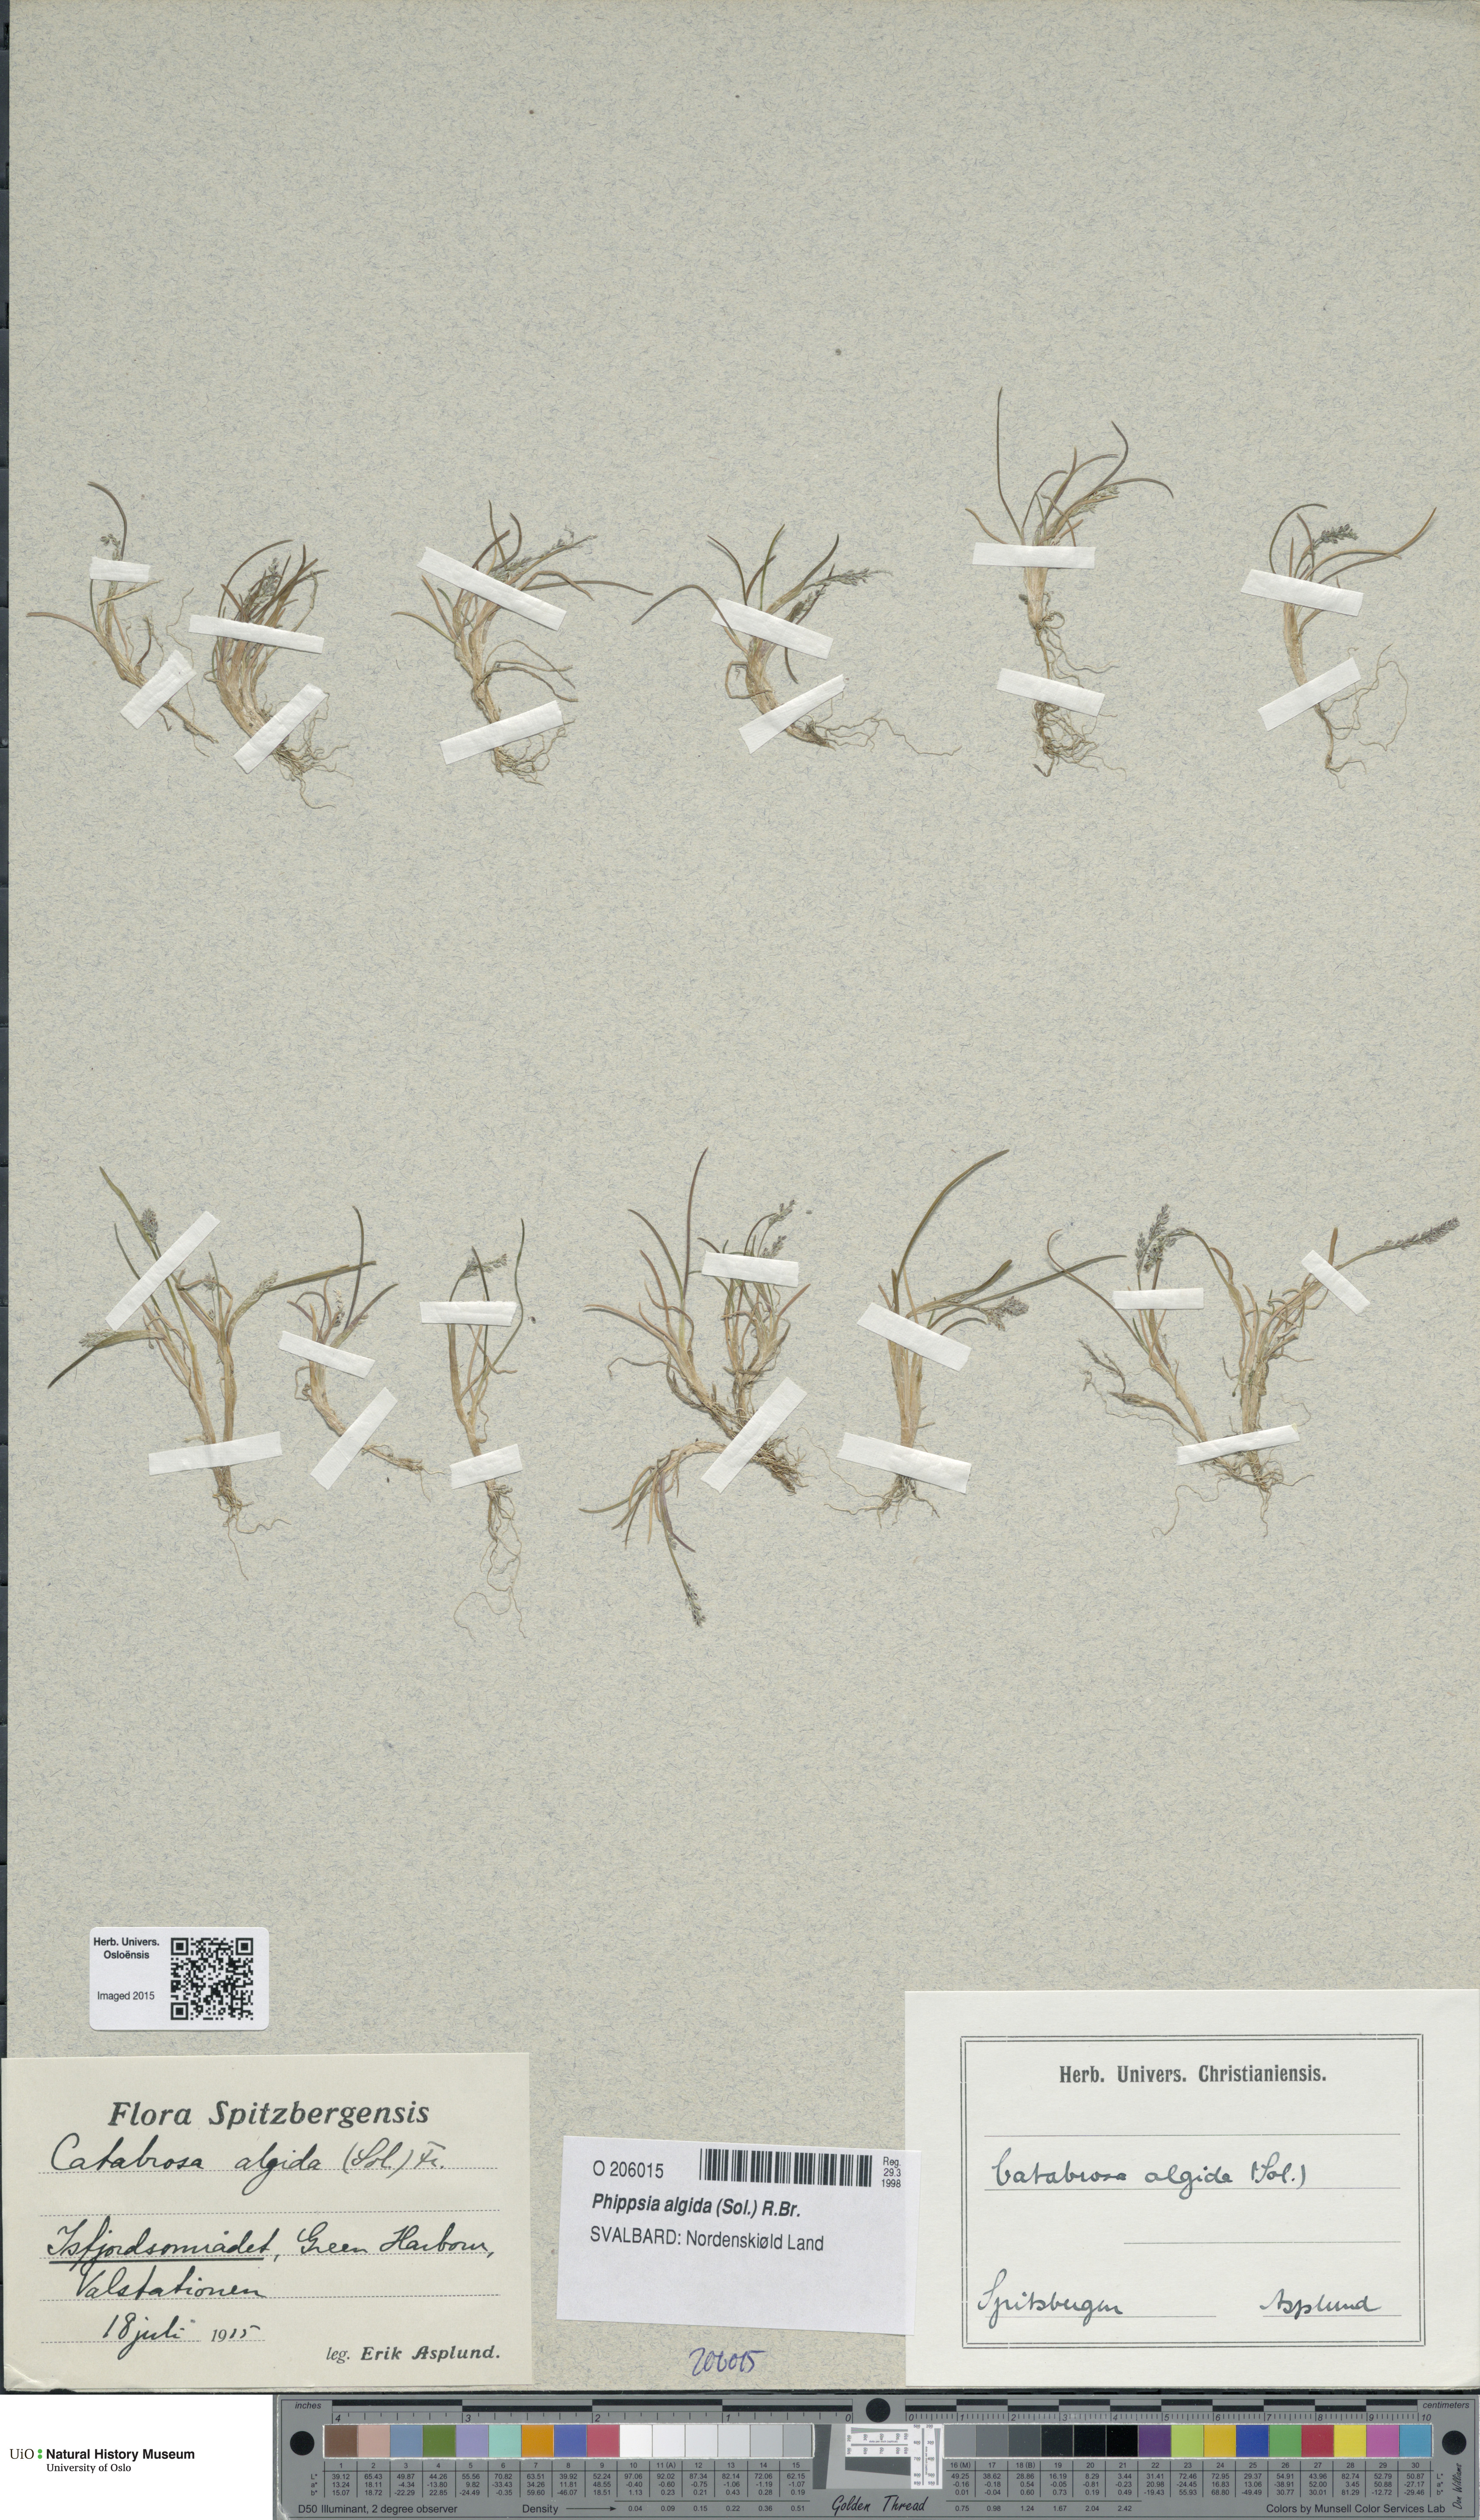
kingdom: Plantae
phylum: Tracheophyta
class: Liliopsida
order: Poales
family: Poaceae
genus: Phippsia
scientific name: Phippsia algida
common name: Ice grass
